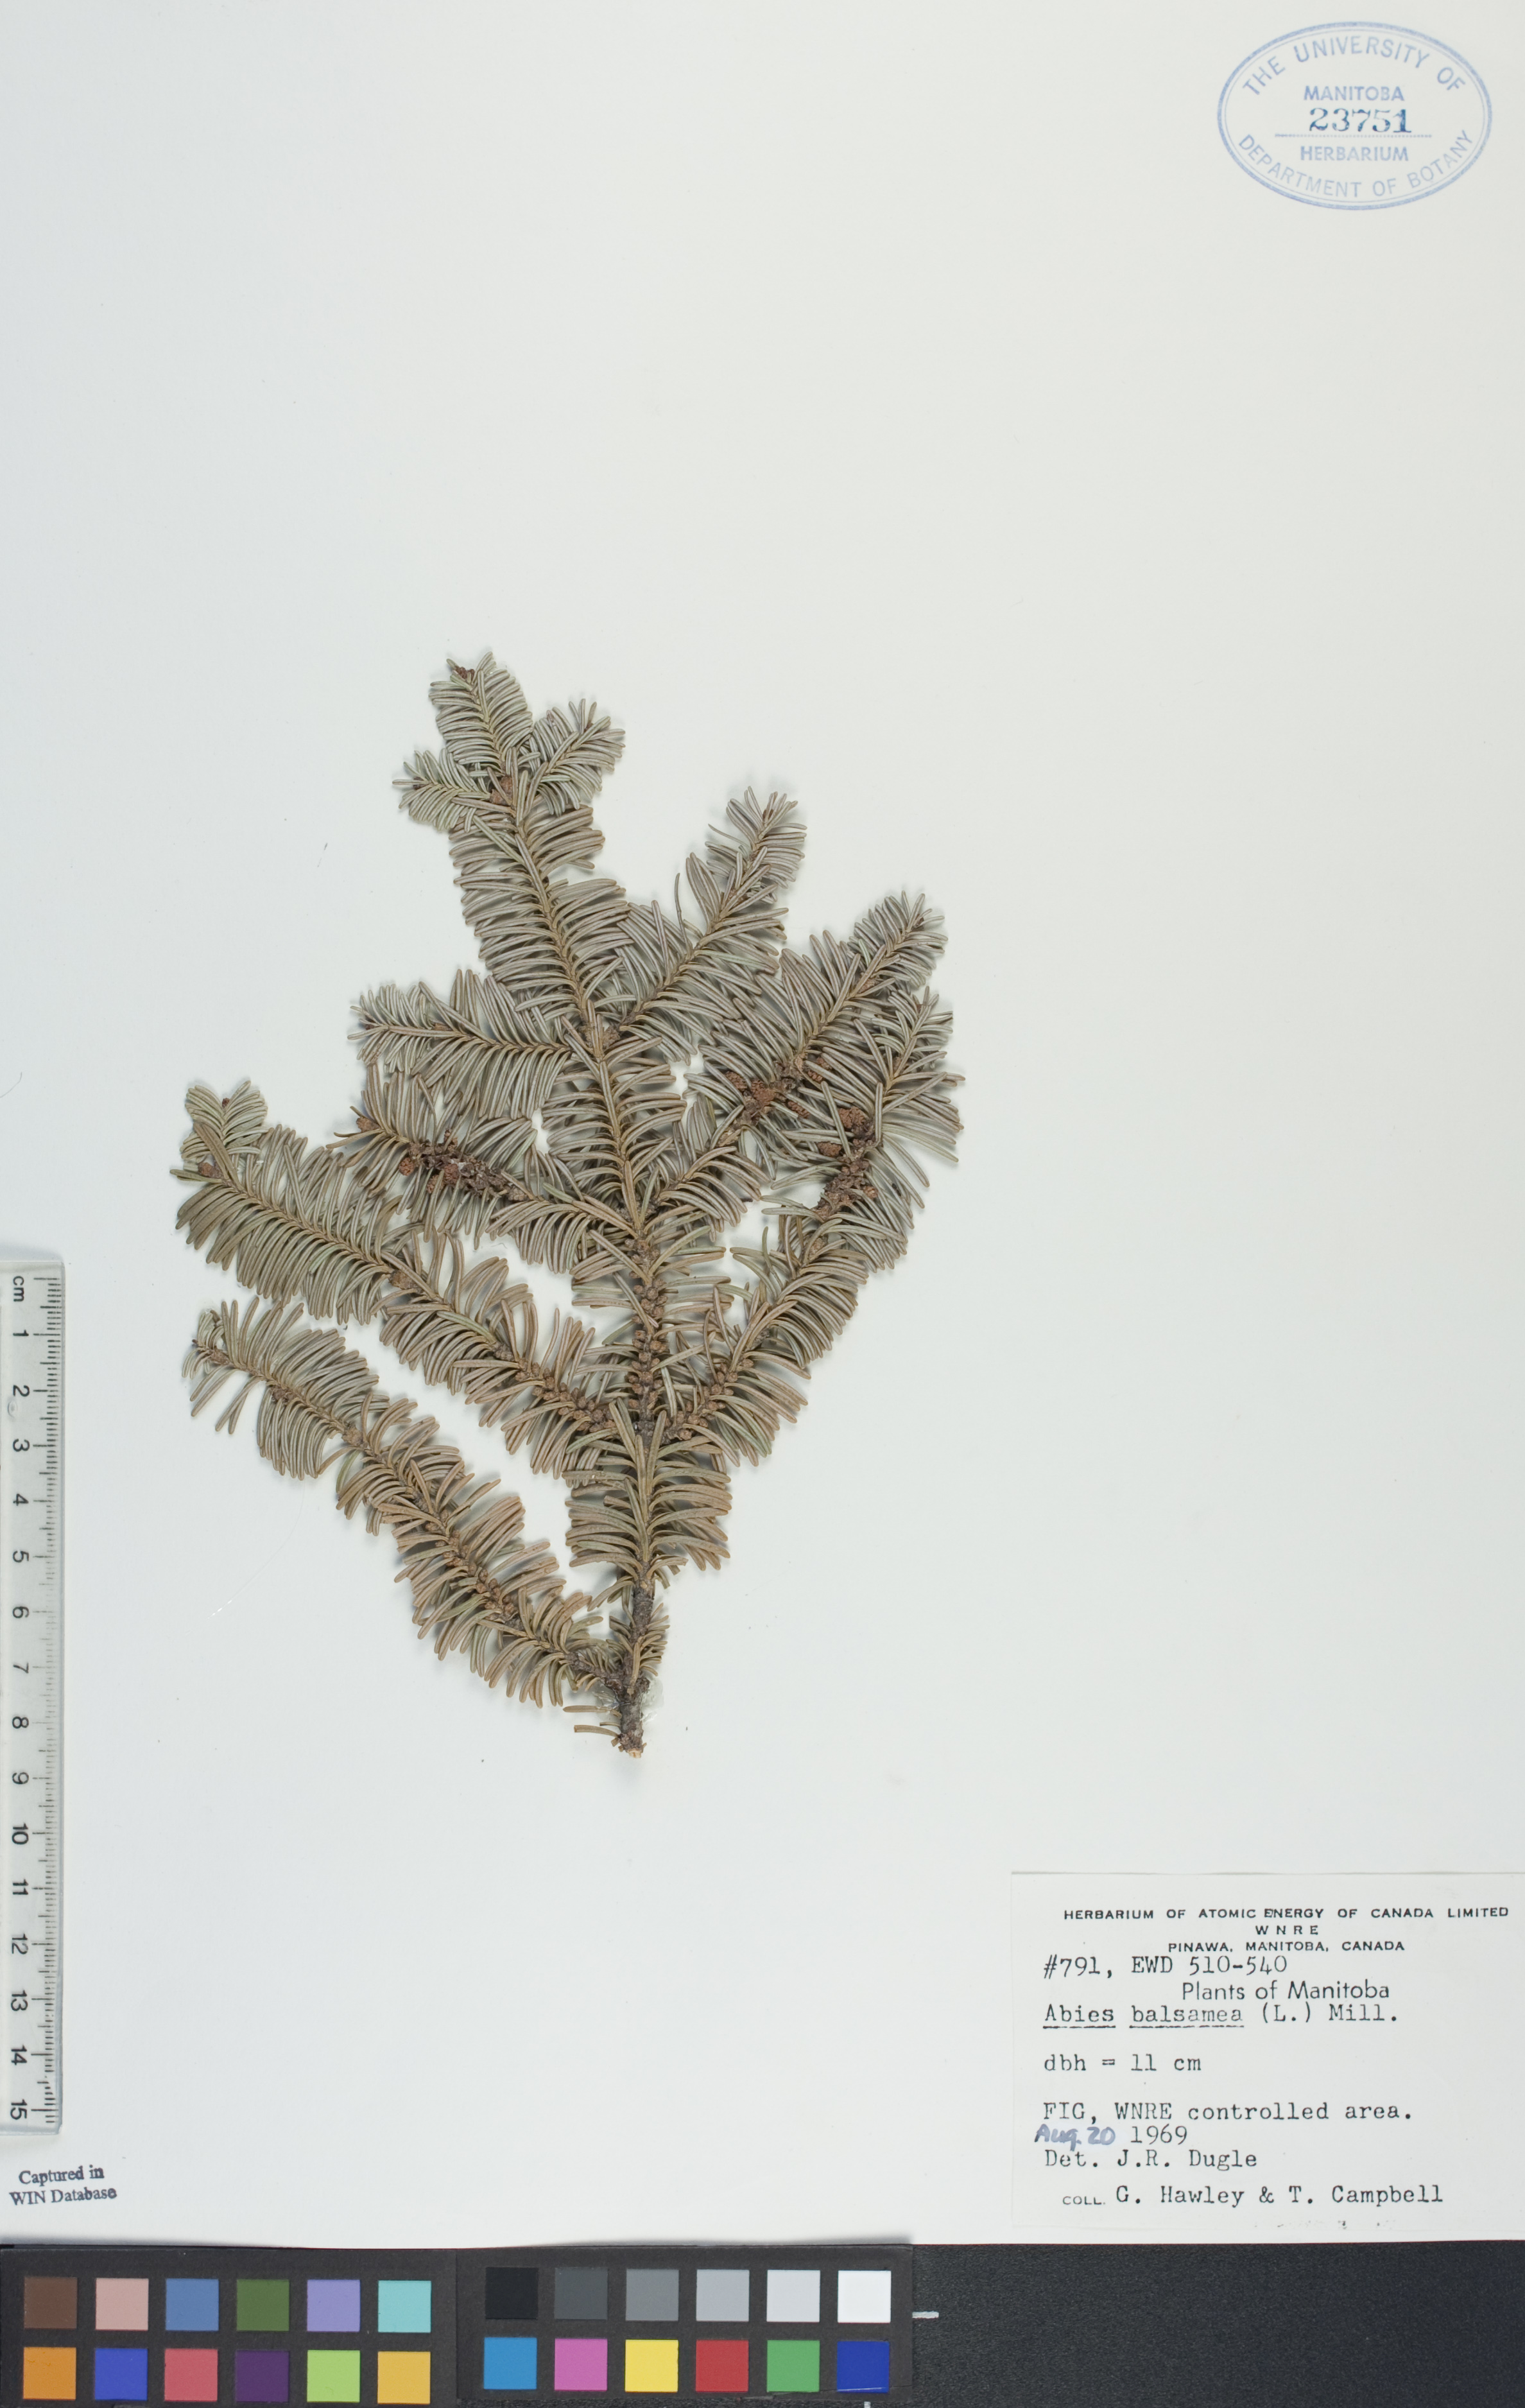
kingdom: Plantae
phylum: Tracheophyta
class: Pinopsida
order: Pinales
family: Pinaceae
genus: Abies
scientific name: Abies balsamea
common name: Balsam fir
